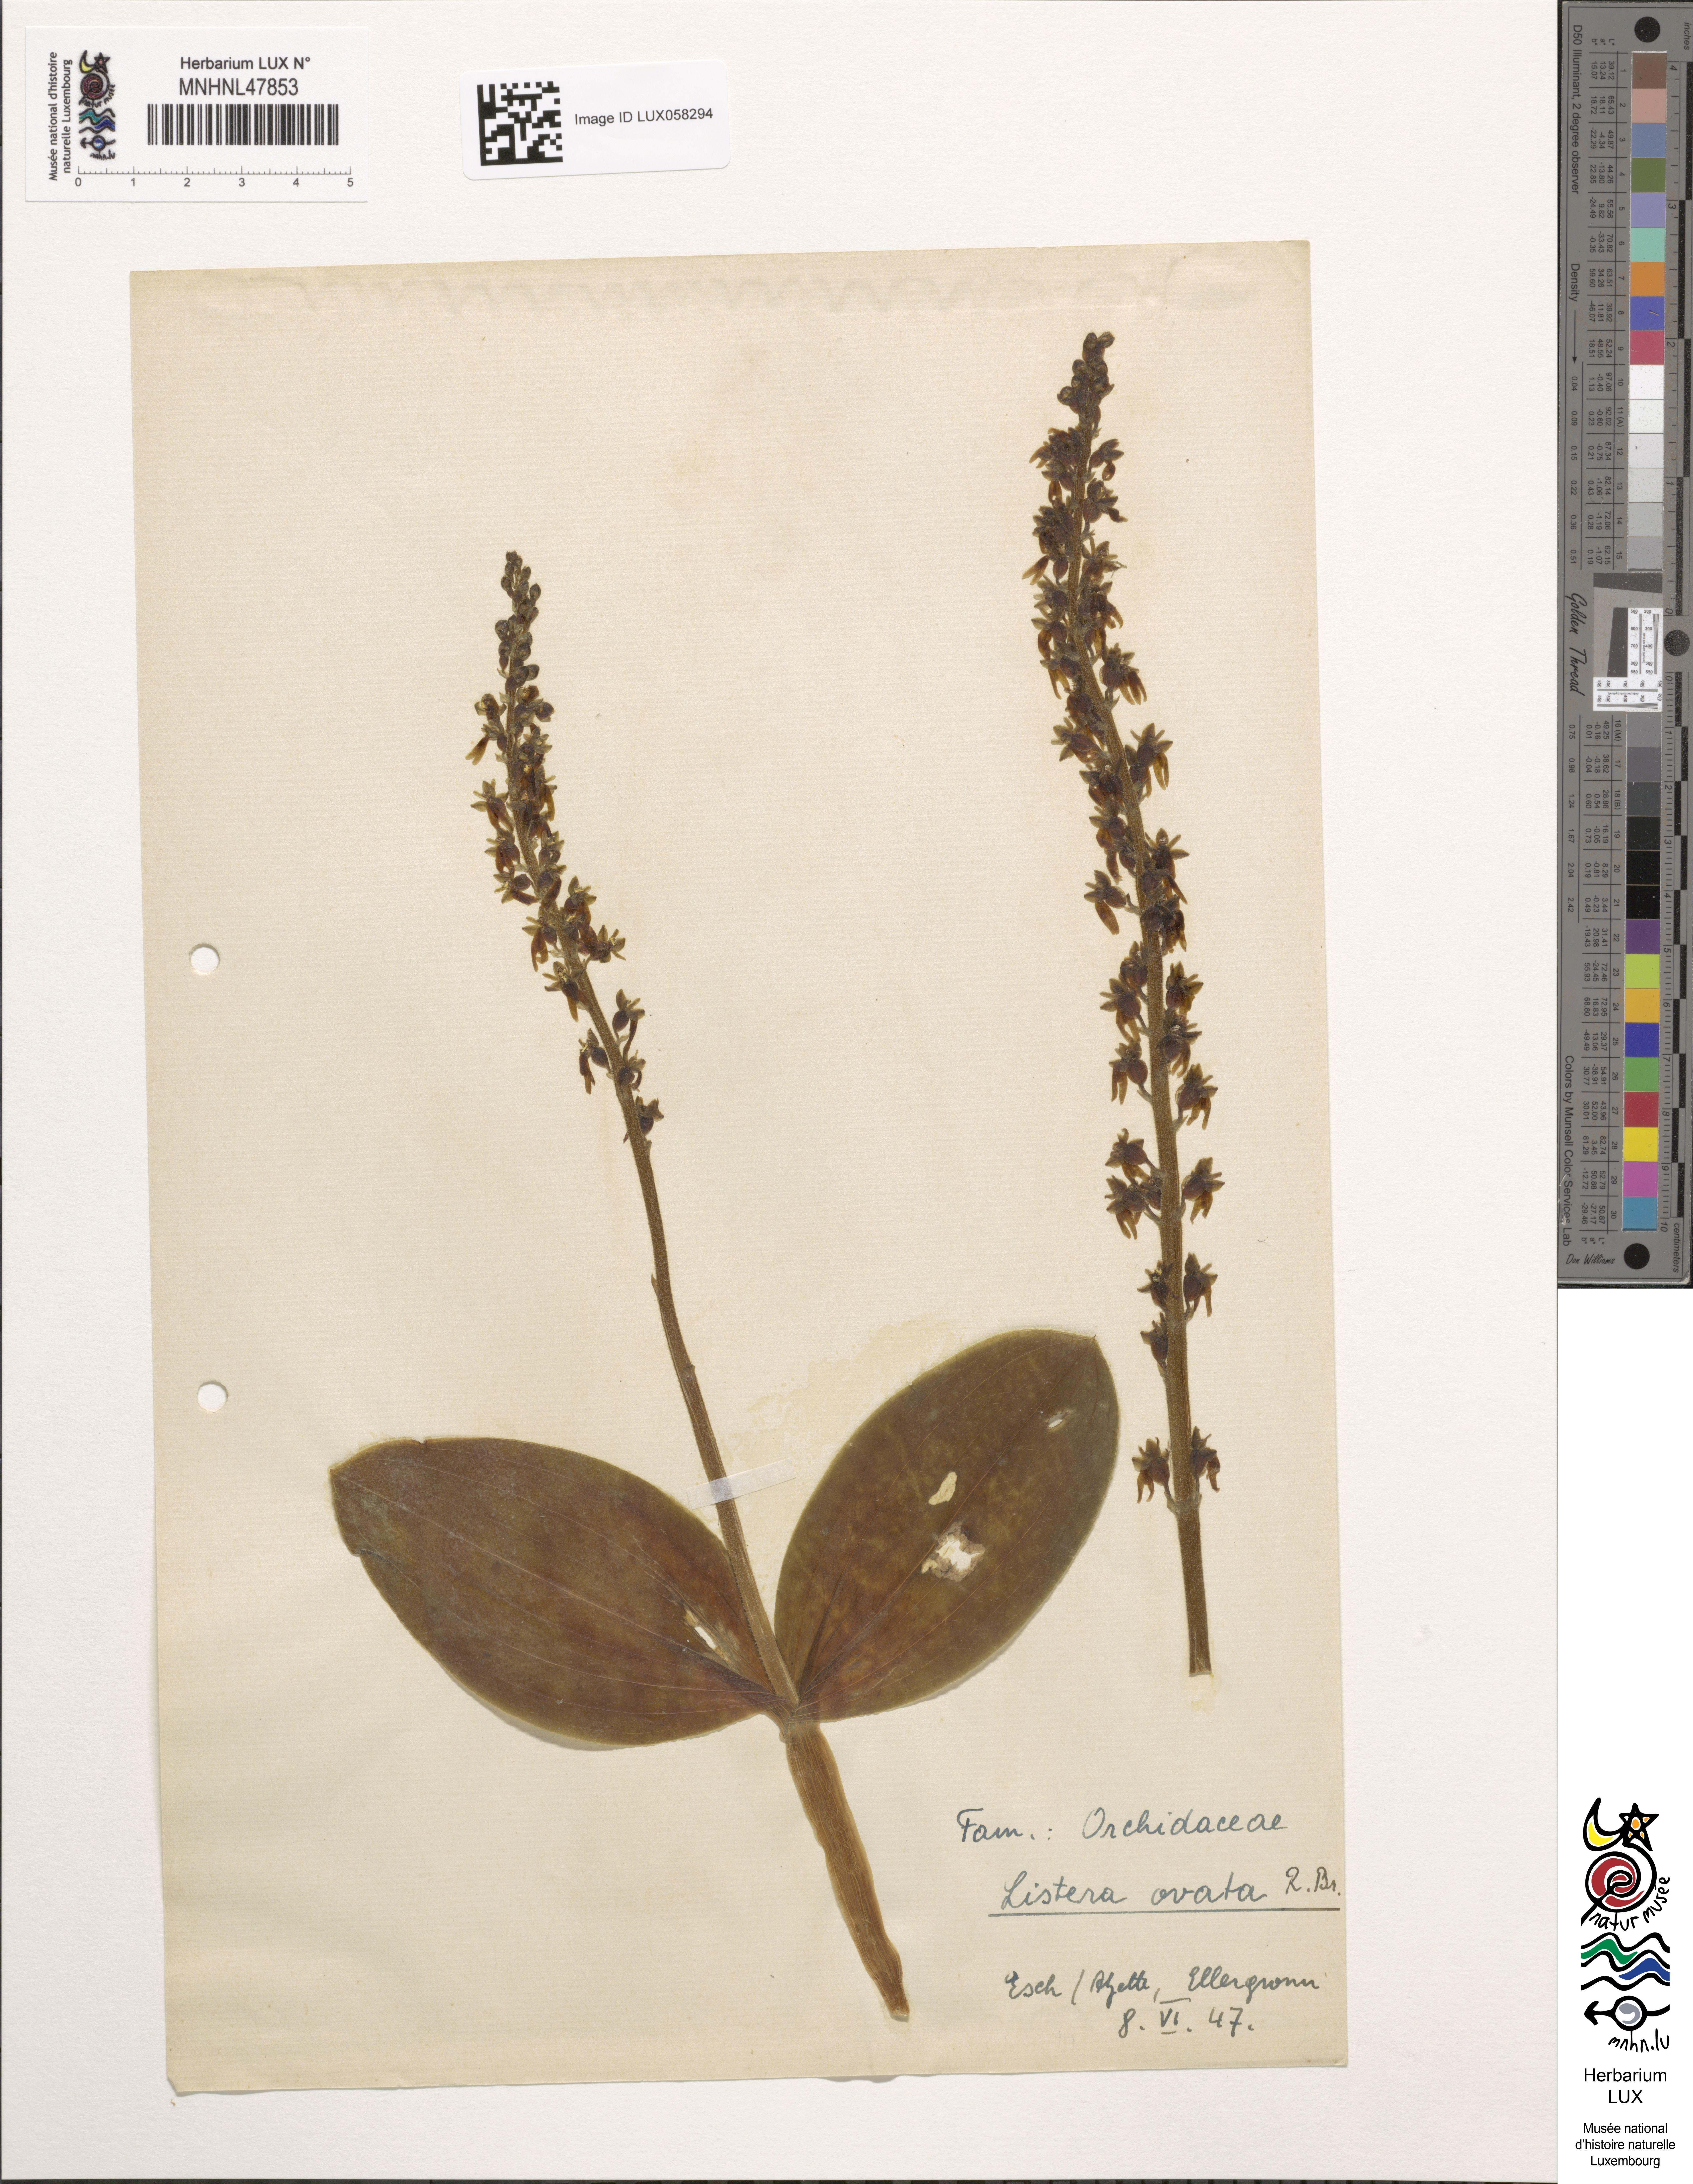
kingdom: Plantae
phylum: Tracheophyta
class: Liliopsida
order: Asparagales
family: Orchidaceae
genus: Neottia
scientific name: Neottia ovata
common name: Common twayblade
